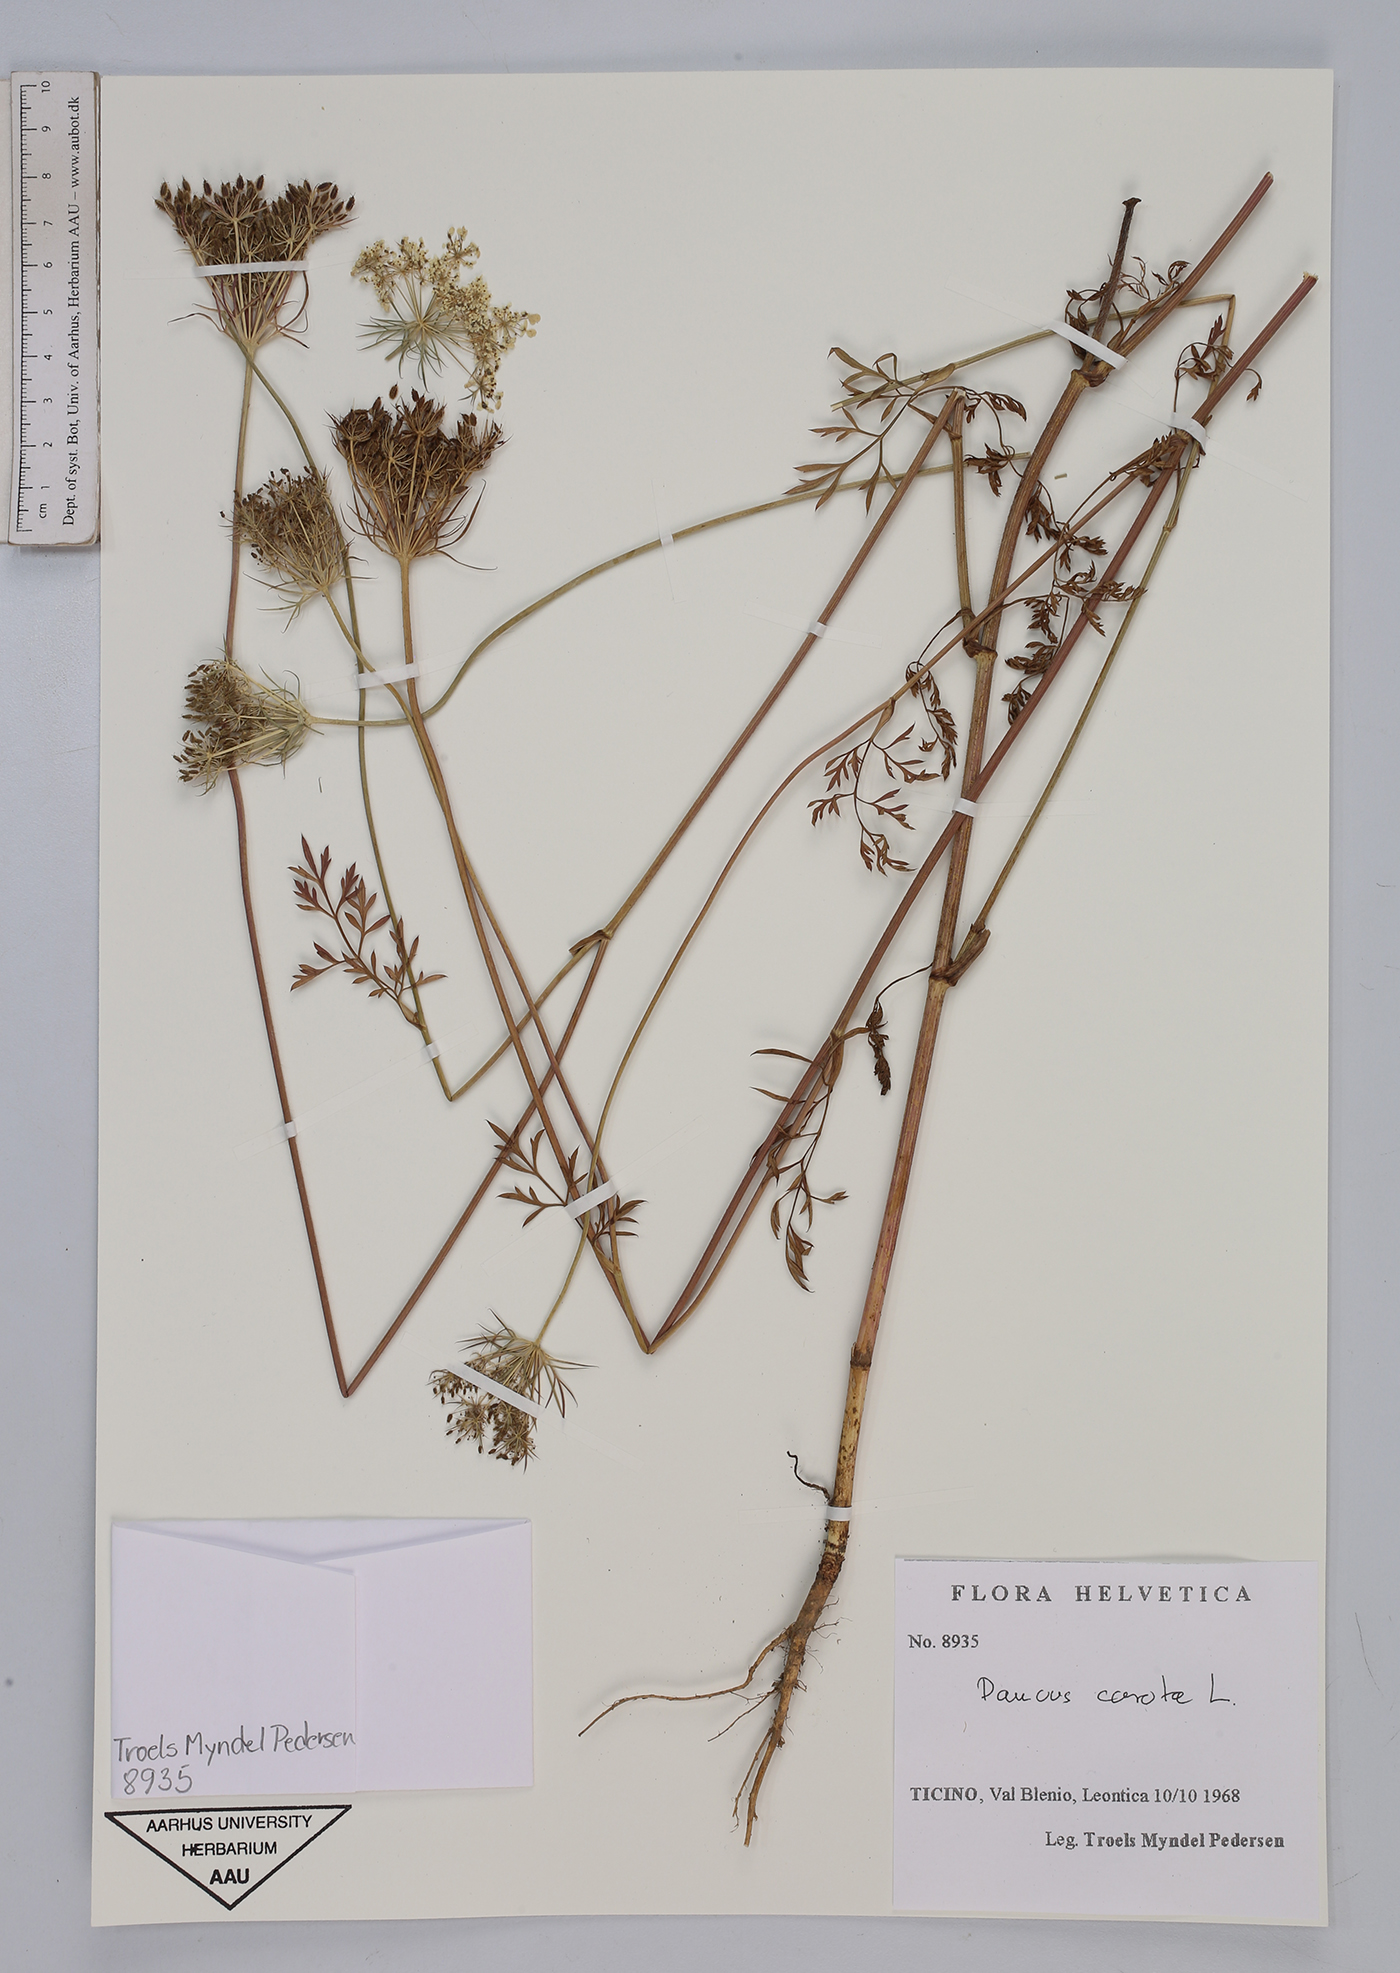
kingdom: Plantae
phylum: Tracheophyta
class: Magnoliopsida
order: Apiales
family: Apiaceae
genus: Daucus
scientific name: Daucus carota
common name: Wild carrot
